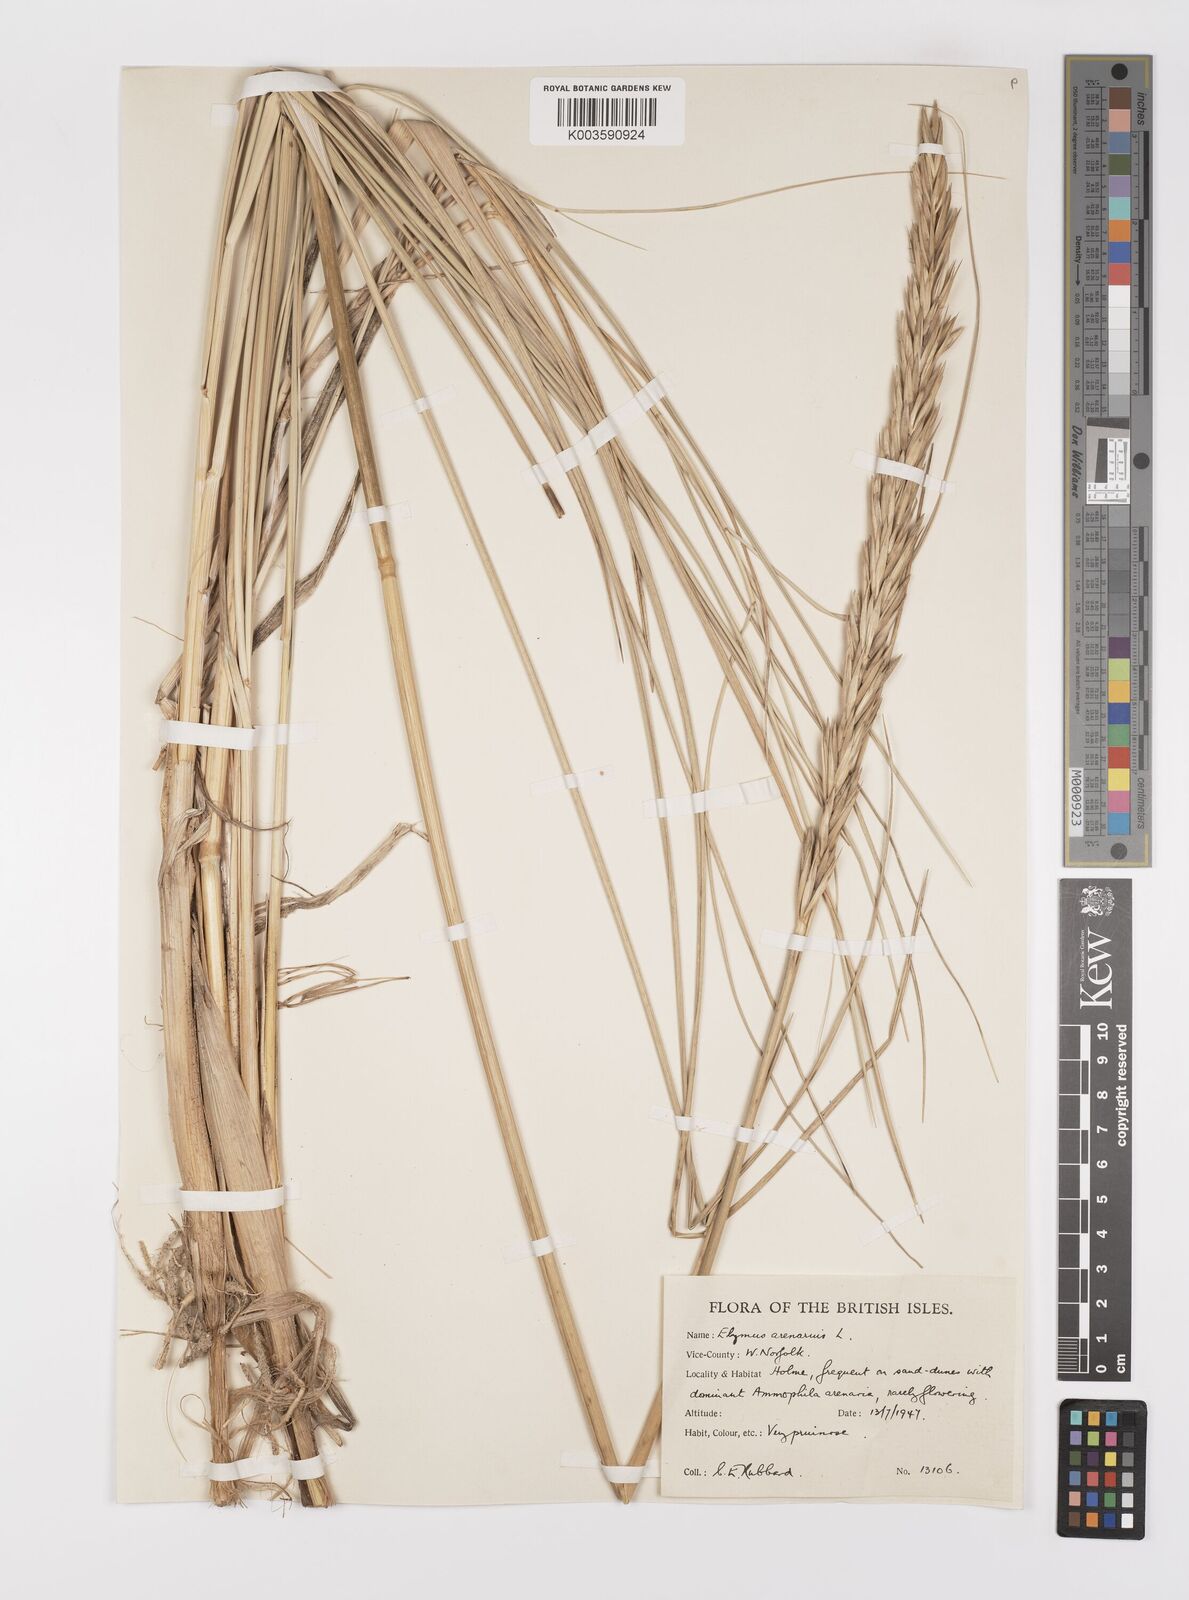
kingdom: Plantae
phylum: Tracheophyta
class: Liliopsida
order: Poales
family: Poaceae
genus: Leymus
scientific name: Leymus arenarius
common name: Lyme-grass
